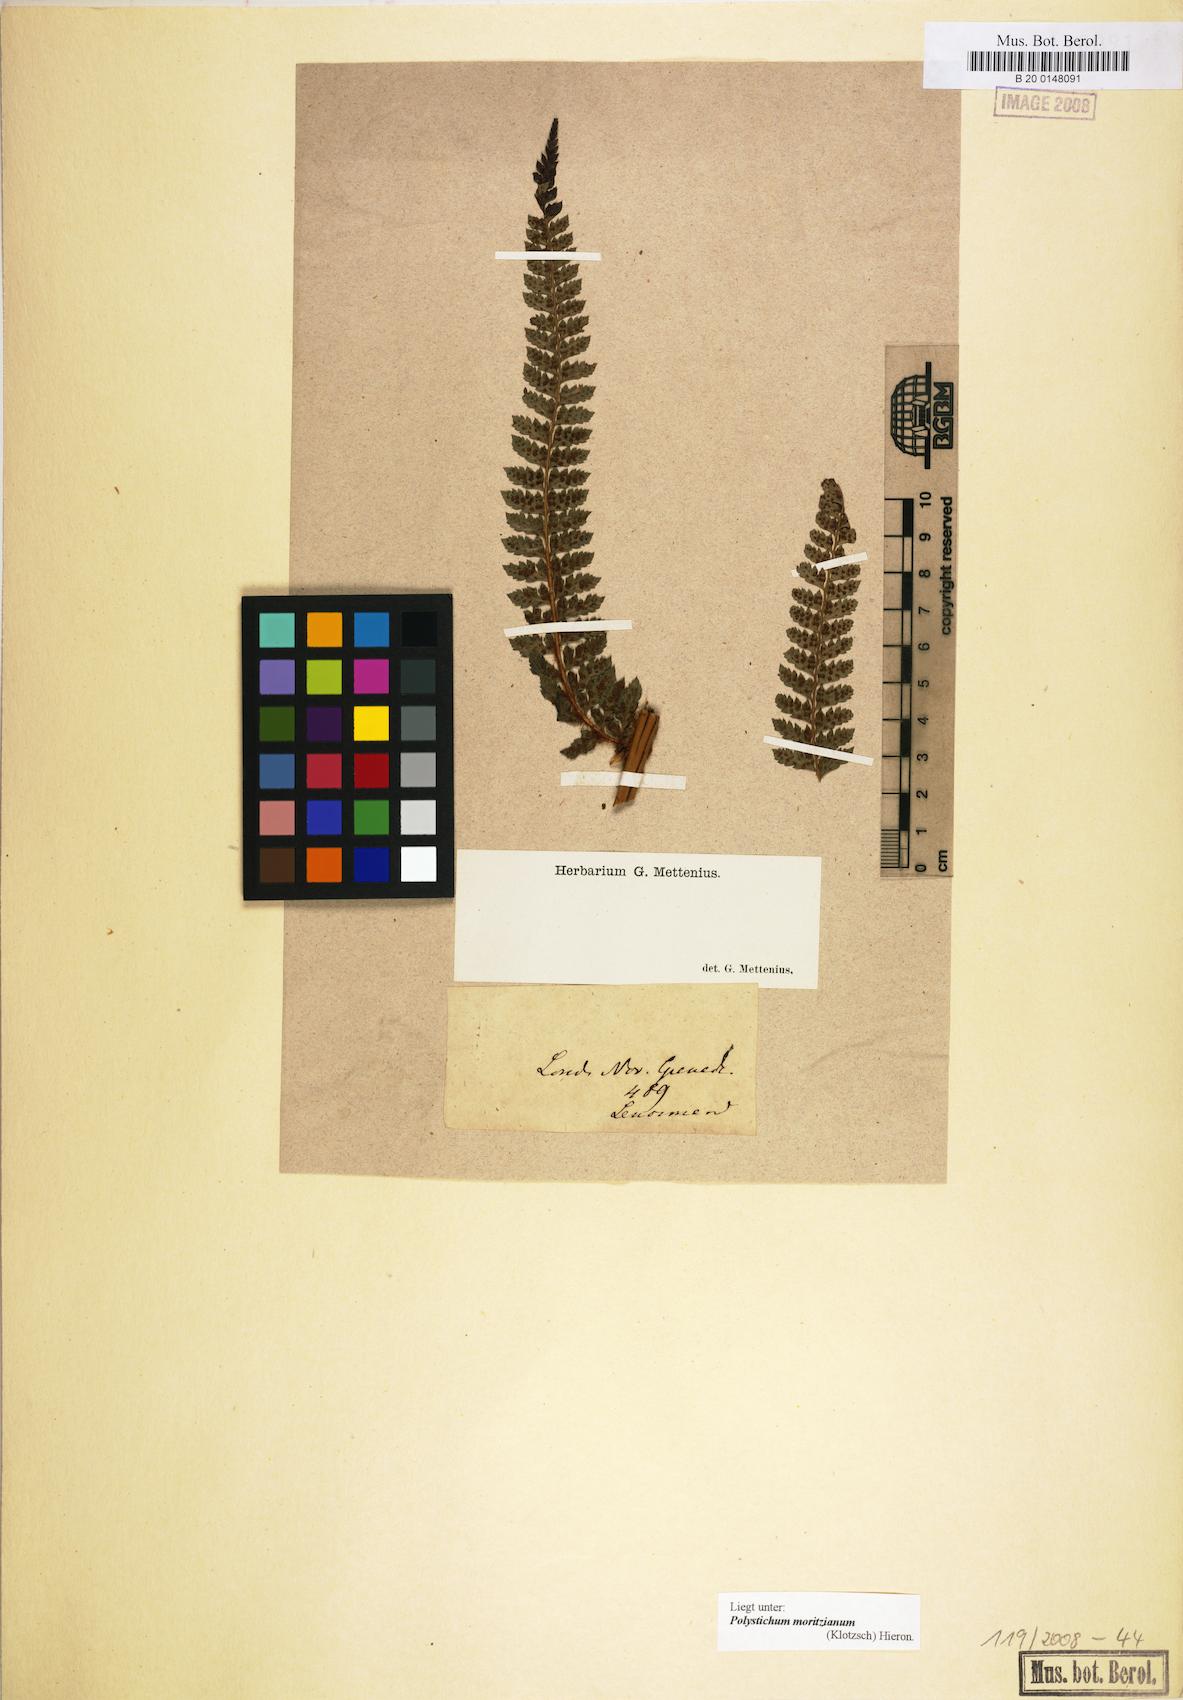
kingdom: Plantae
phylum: Tracheophyta
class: Polypodiopsida
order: Polypodiales
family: Dryopteridaceae
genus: Polystichum
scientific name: Polystichum muricatum
